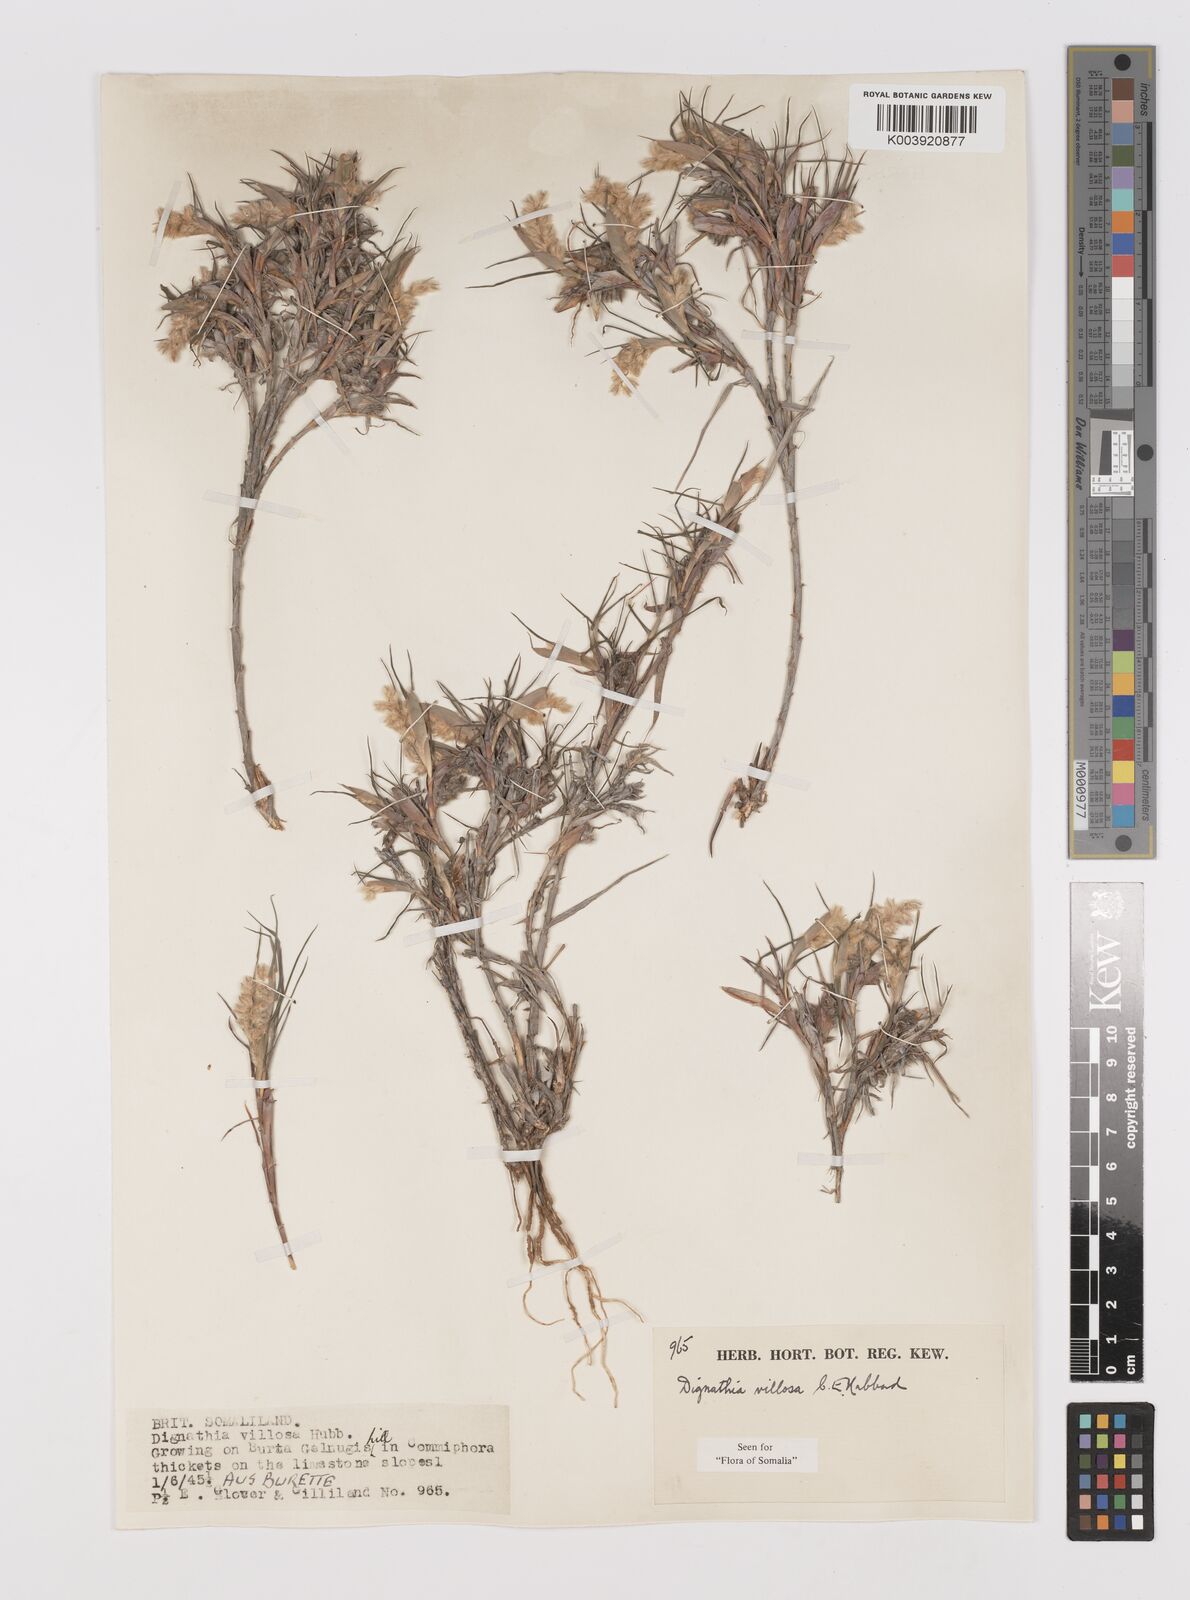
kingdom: Plantae
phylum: Tracheophyta
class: Liliopsida
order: Poales
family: Poaceae
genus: Dignathia
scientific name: Dignathia villosa
